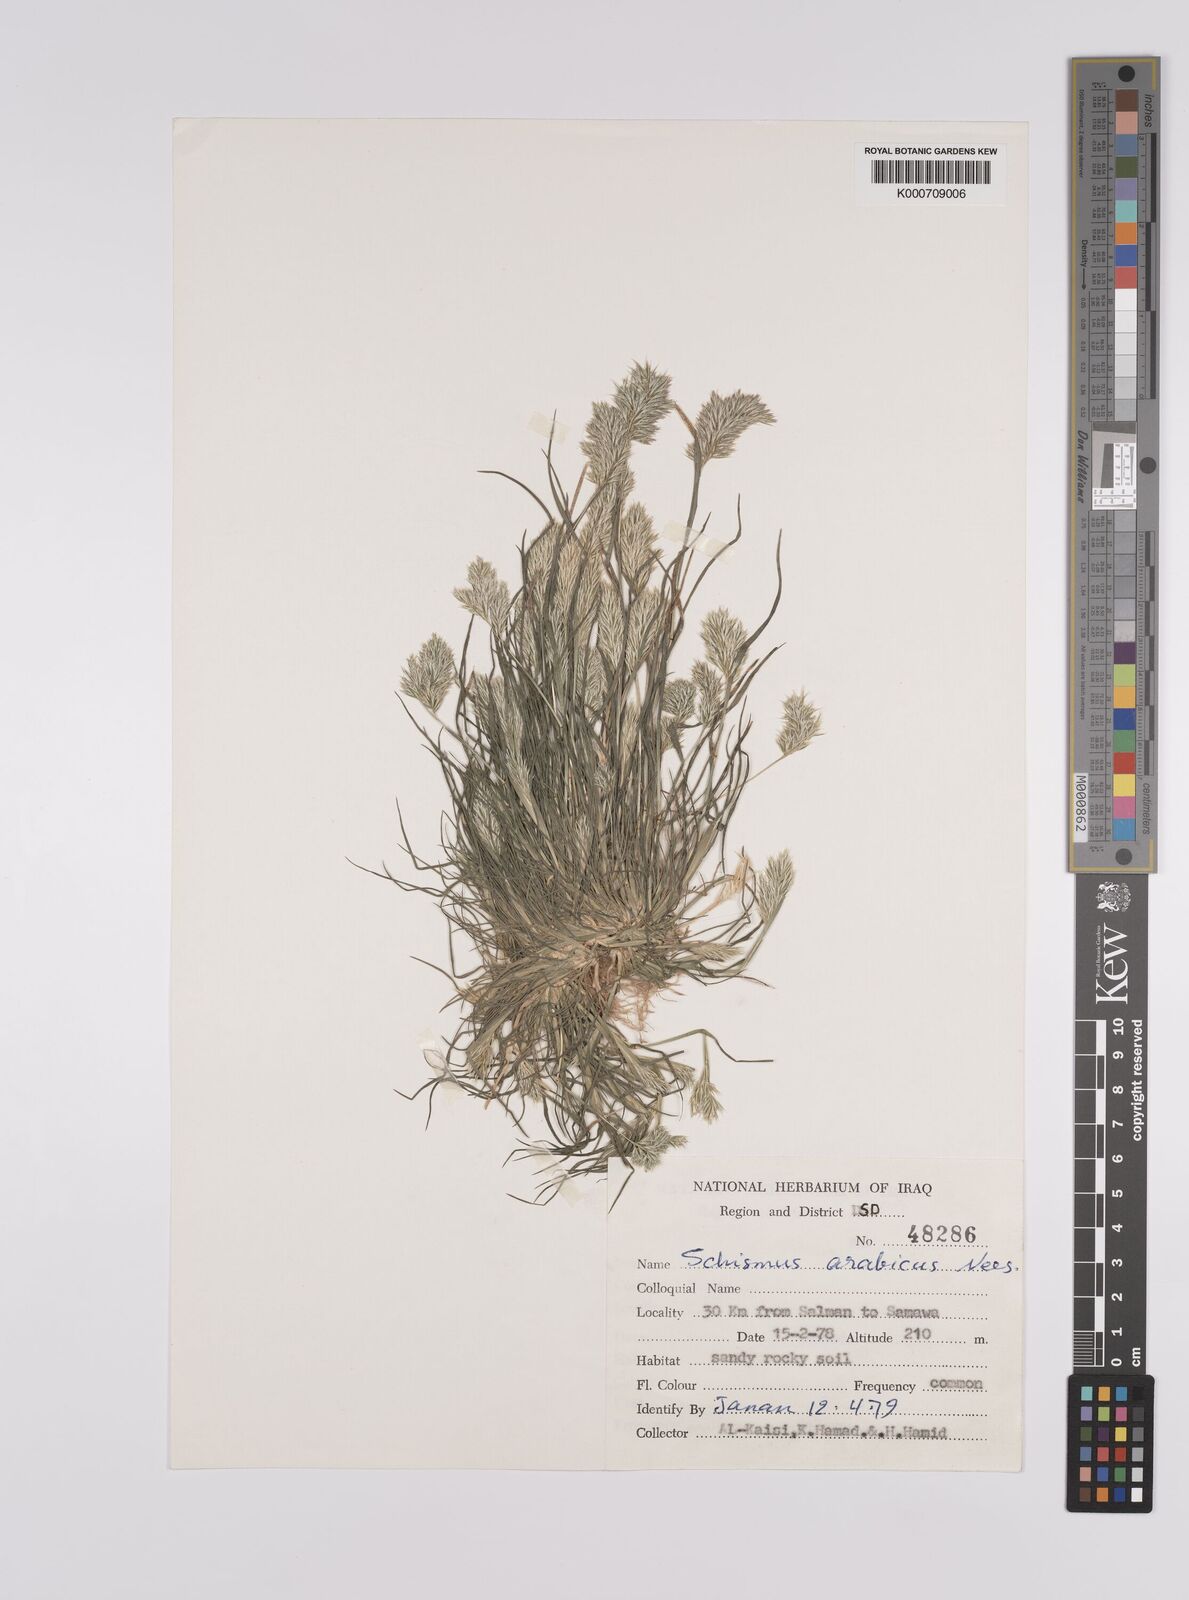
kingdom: Plantae
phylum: Tracheophyta
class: Liliopsida
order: Poales
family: Poaceae
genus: Schismus
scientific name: Schismus arabicus
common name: Arabian schismus
